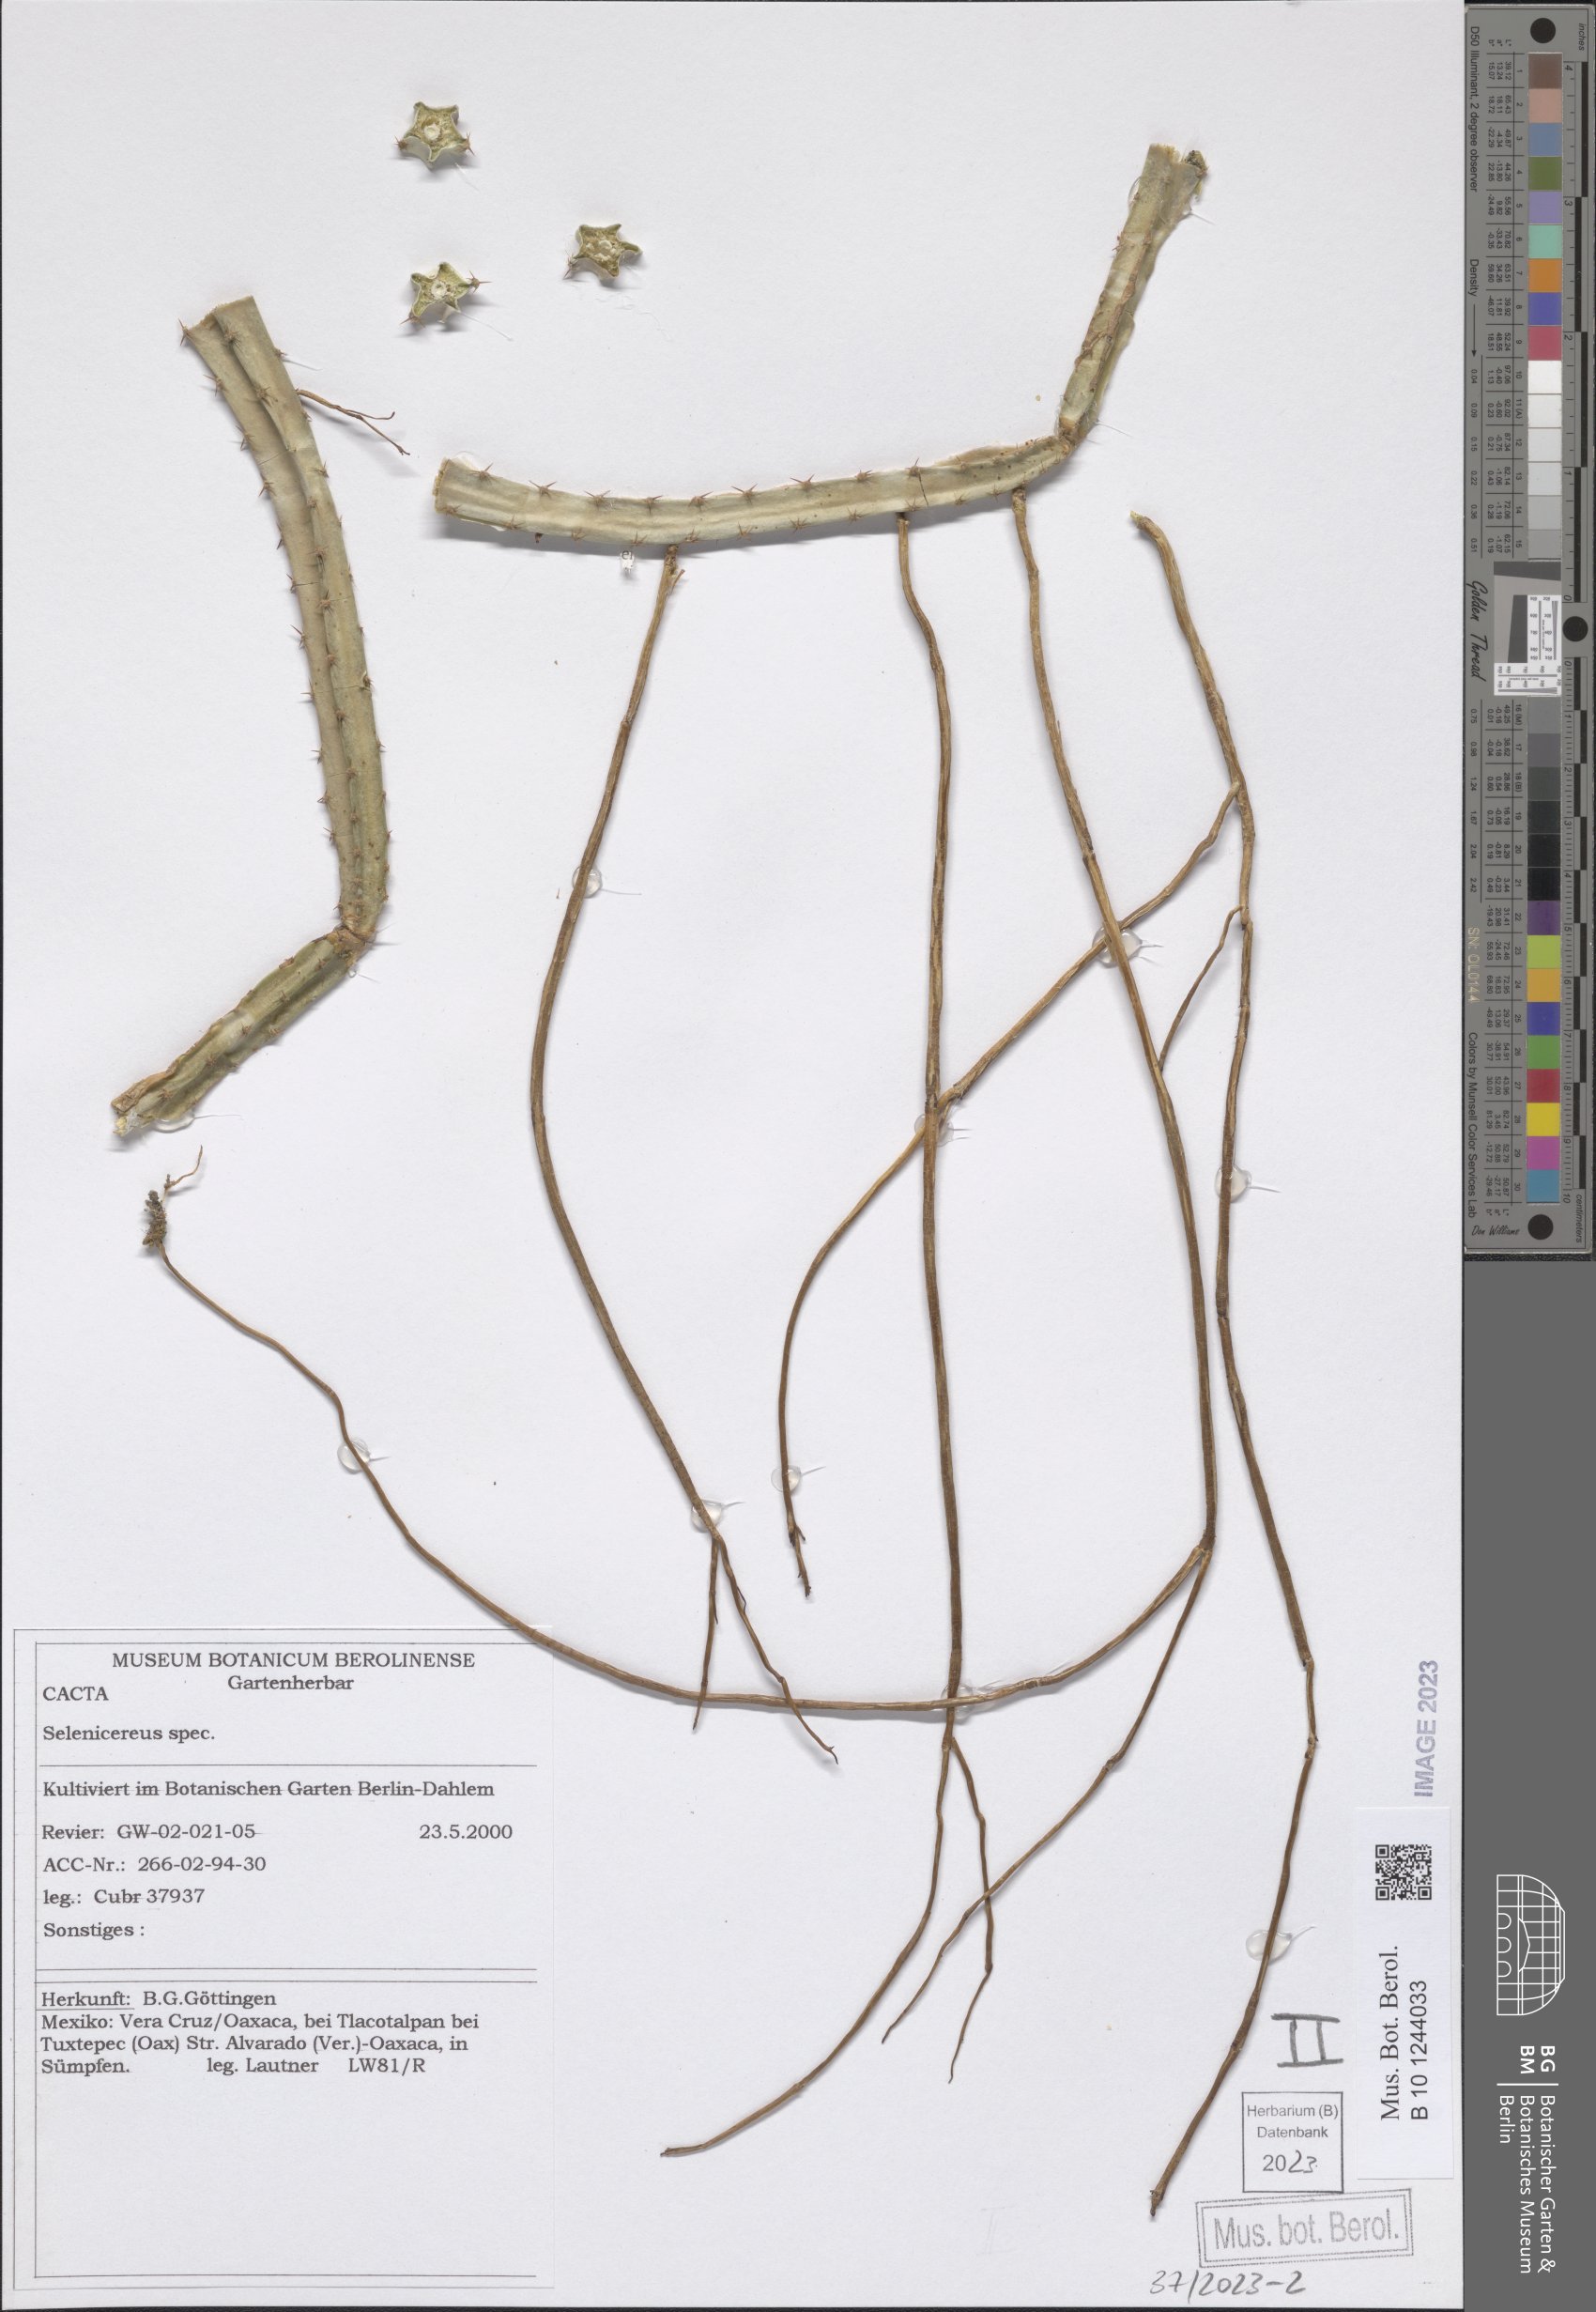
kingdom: Plantae
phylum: Tracheophyta
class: Magnoliopsida
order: Caryophyllales
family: Cactaceae
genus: Selenicereus
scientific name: Selenicereus spinulosus
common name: Nightblooming cereus
